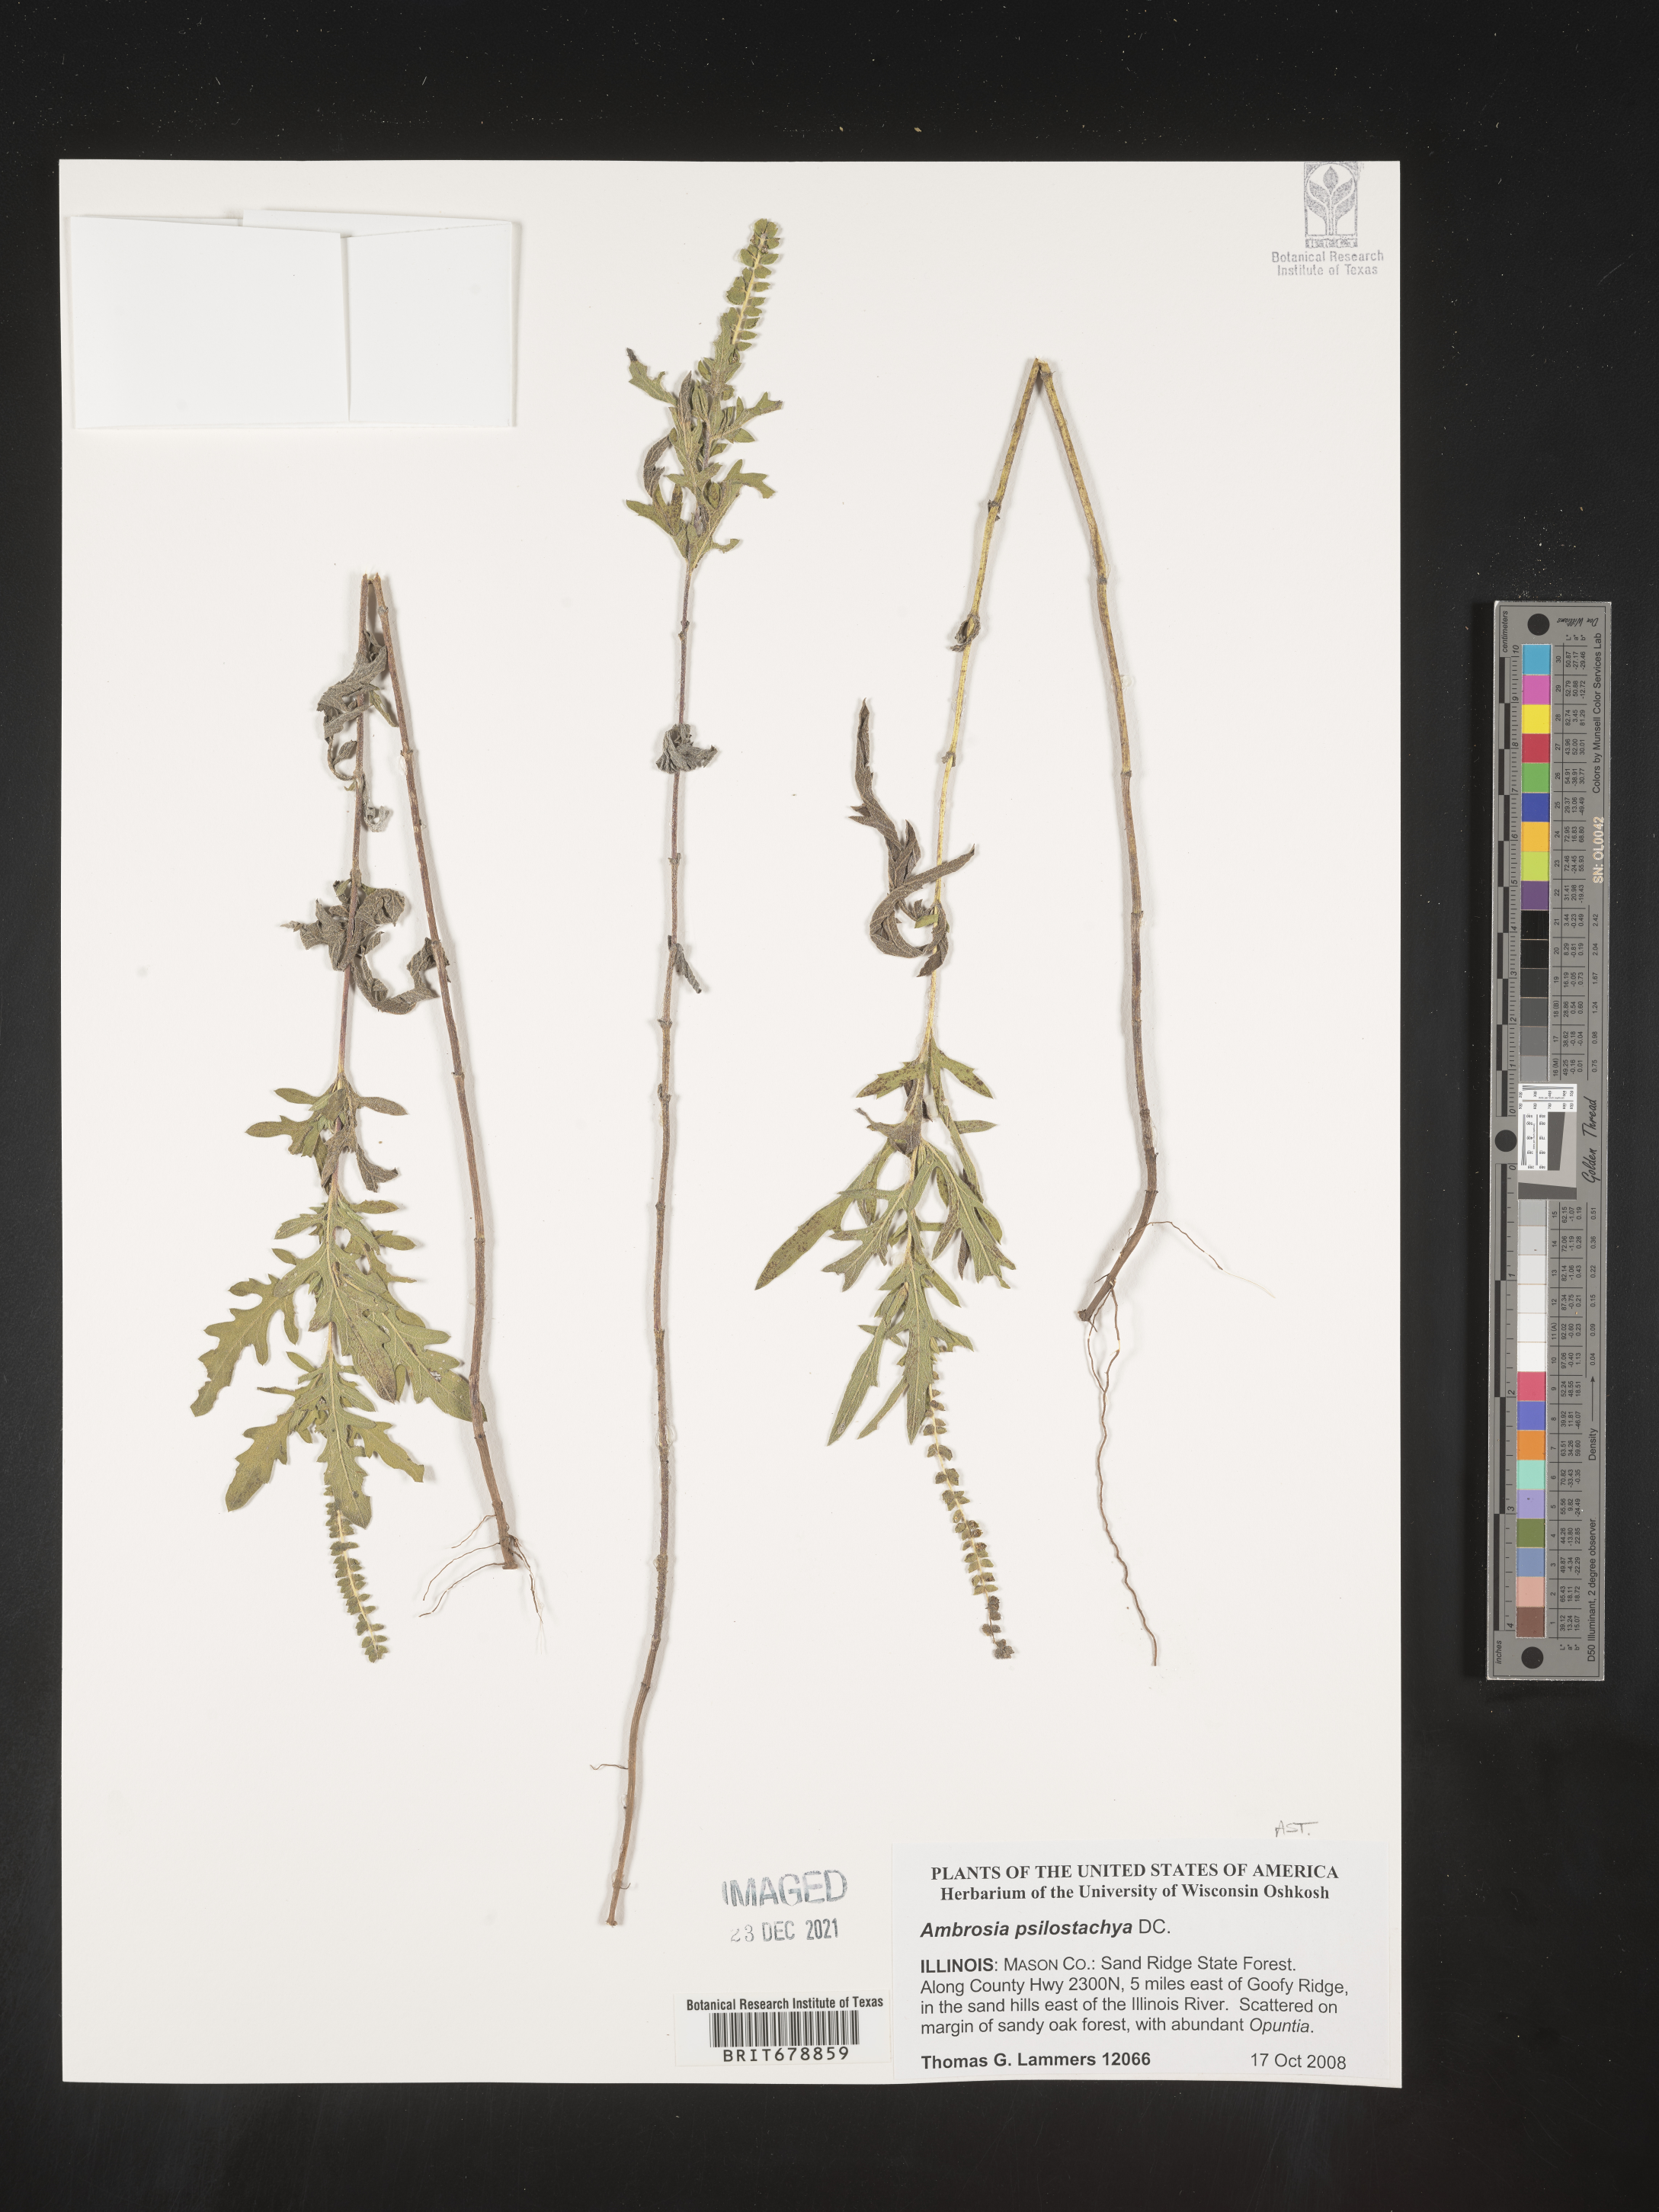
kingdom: Plantae
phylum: Tracheophyta
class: Magnoliopsida
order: Asterales
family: Asteraceae
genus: Ambrosia
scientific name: Ambrosia psilostachya
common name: Perennial ragweed
